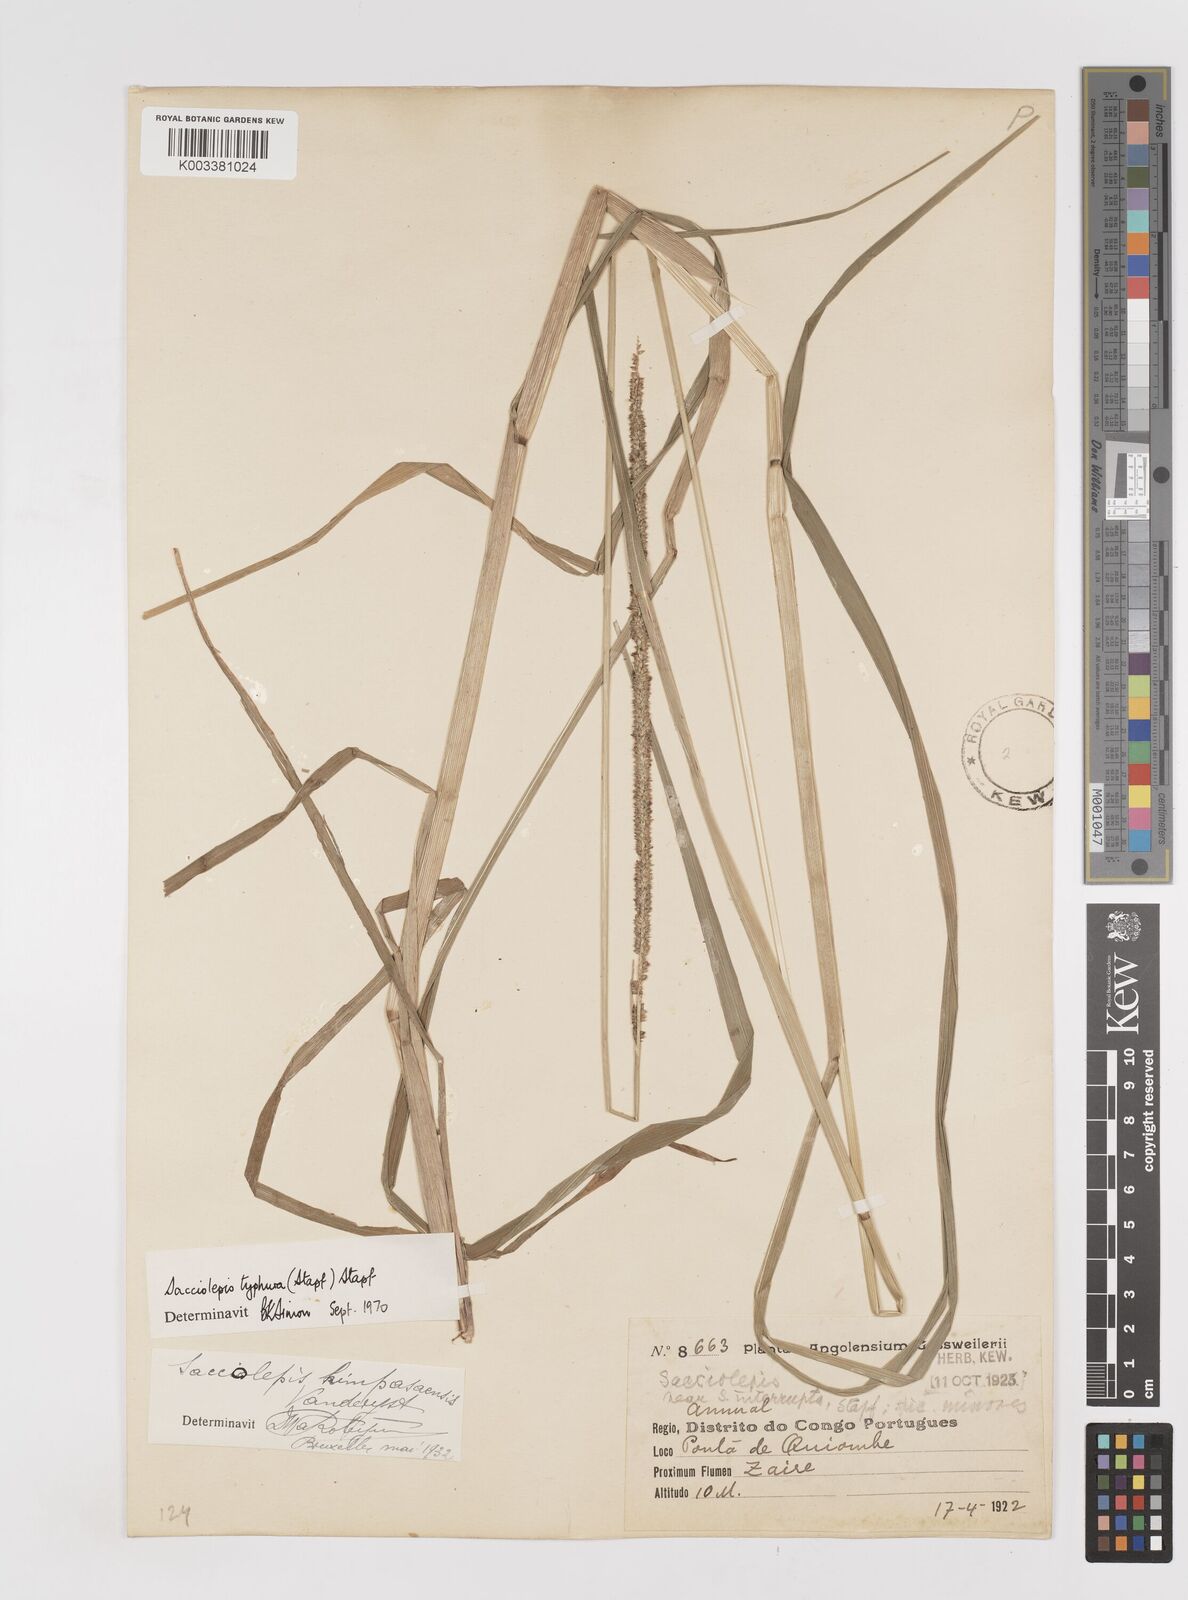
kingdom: Plantae
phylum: Tracheophyta
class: Liliopsida
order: Poales
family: Poaceae
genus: Sacciolepis
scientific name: Sacciolepis typhura
